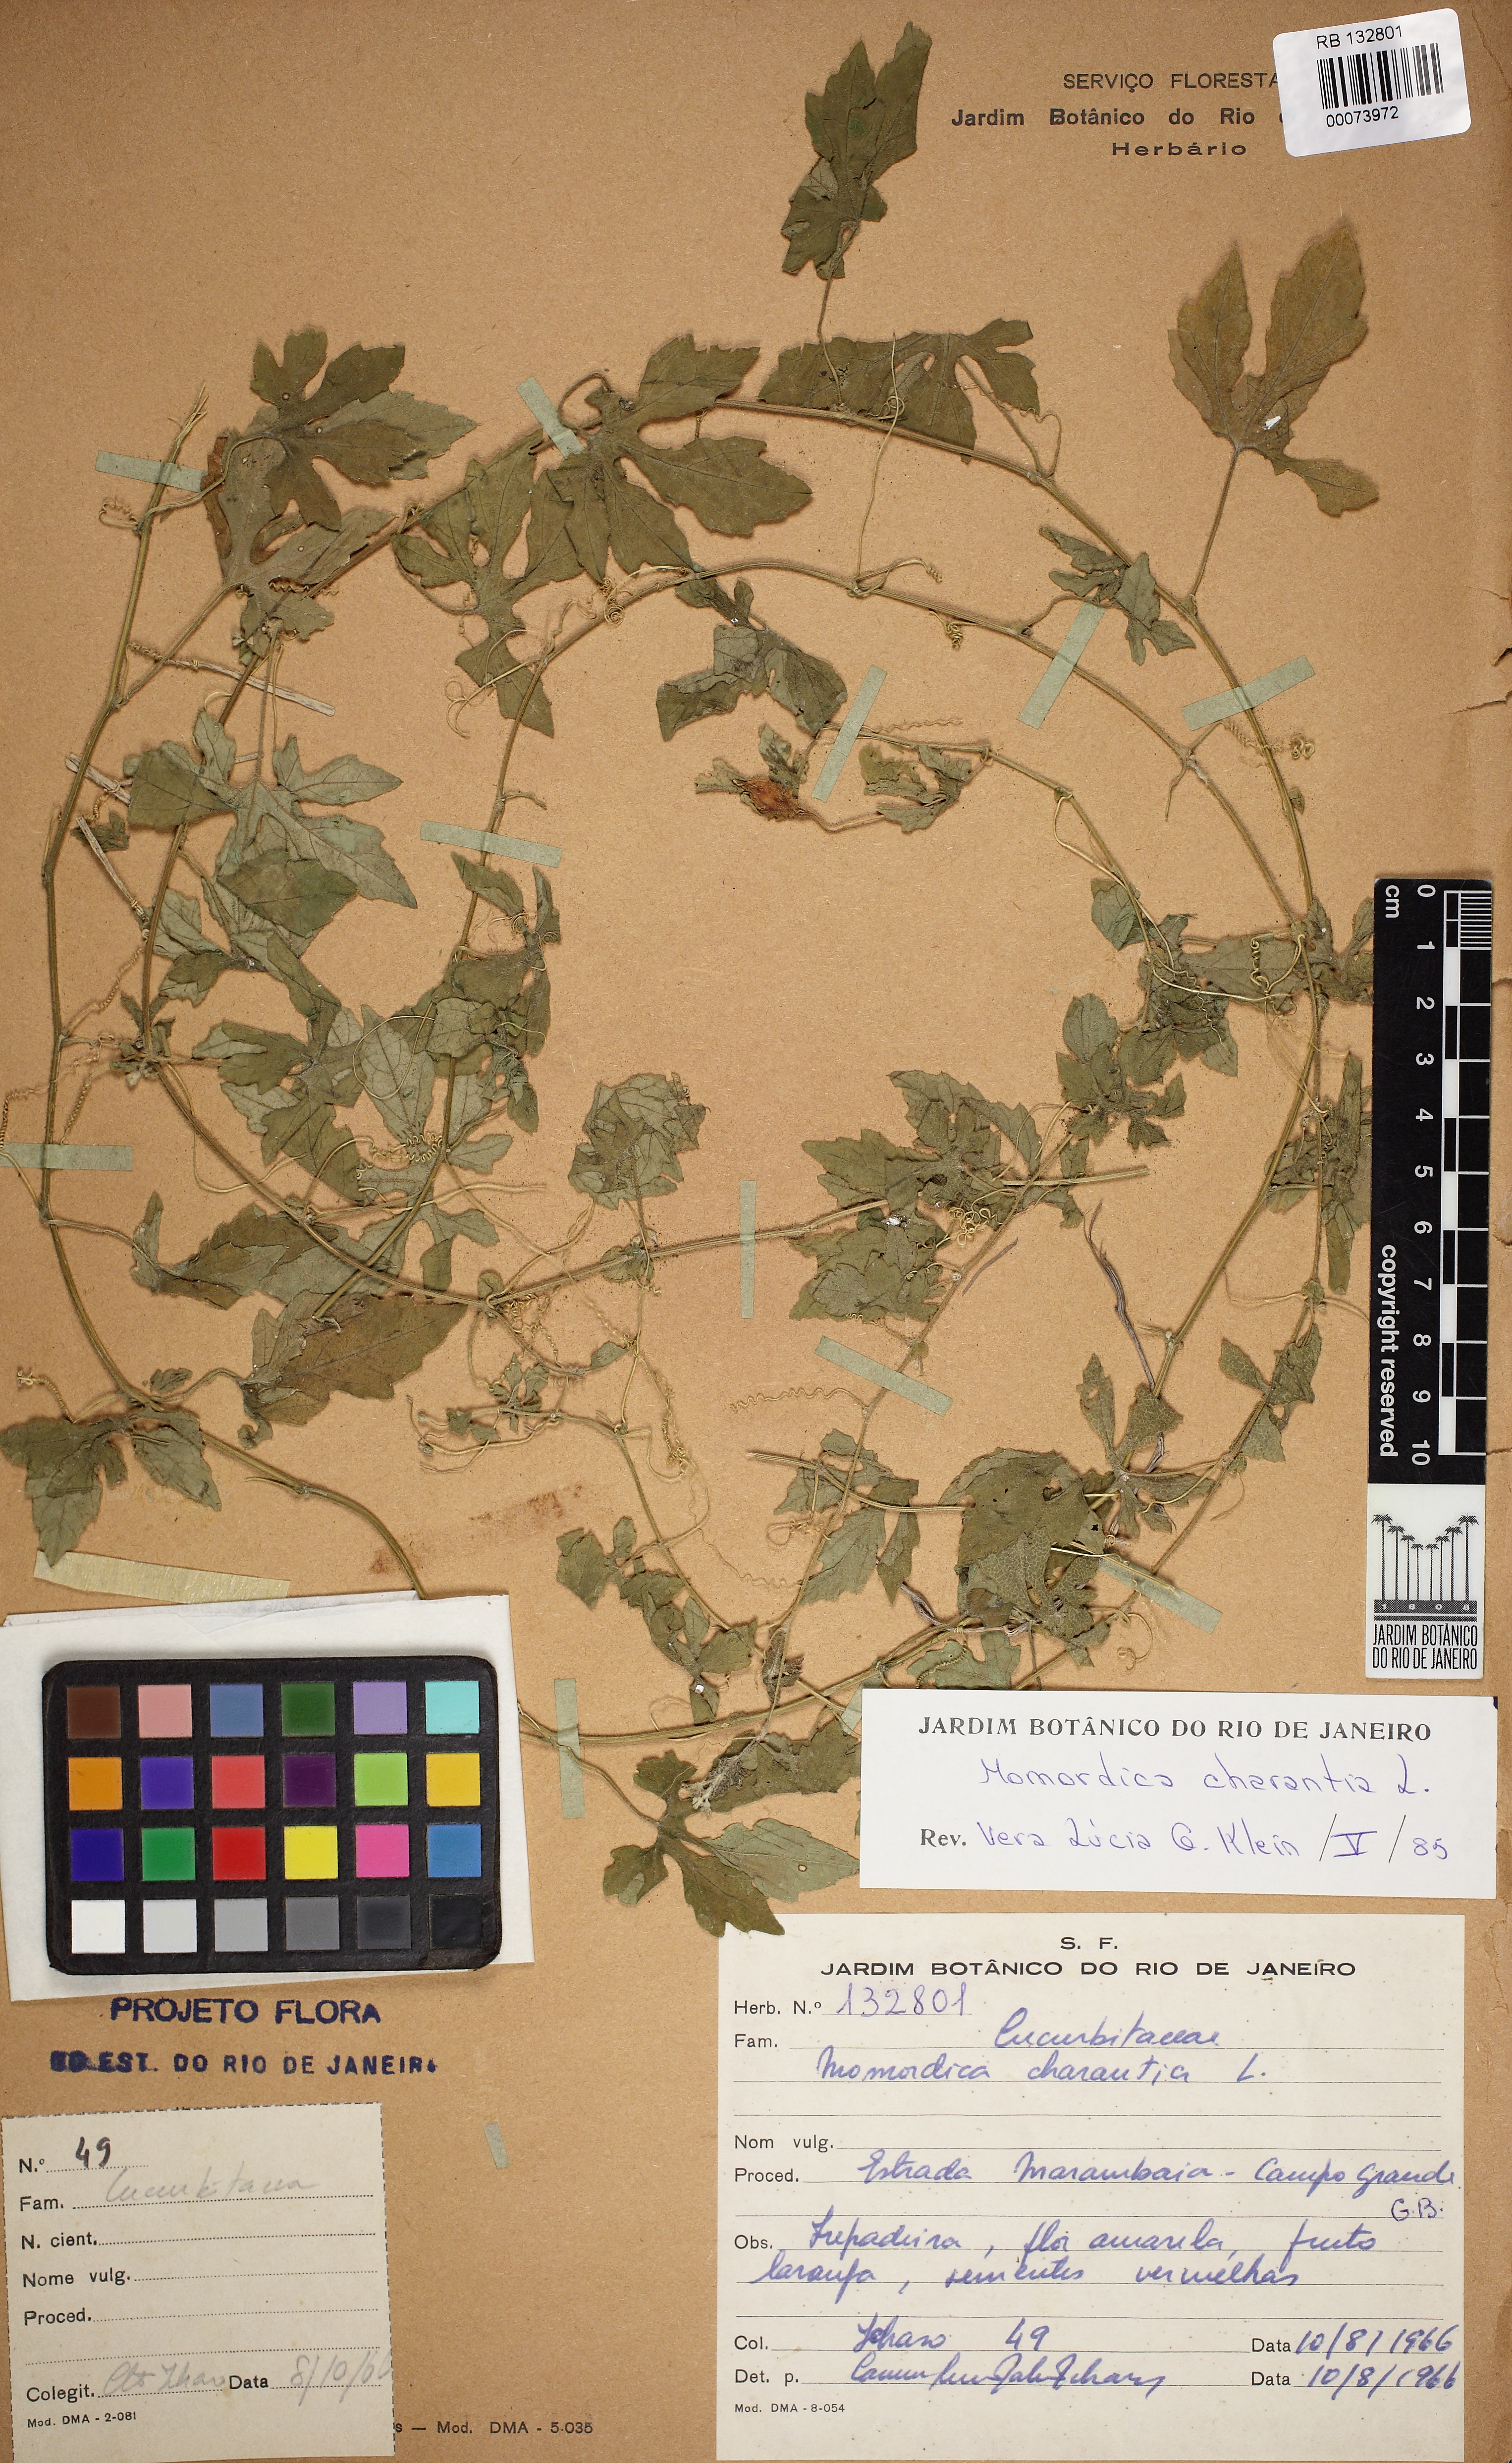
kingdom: Plantae
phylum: Tracheophyta
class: Magnoliopsida
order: Cucurbitales
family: Cucurbitaceae
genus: Momordica
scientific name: Momordica charantia
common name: Balsampear
